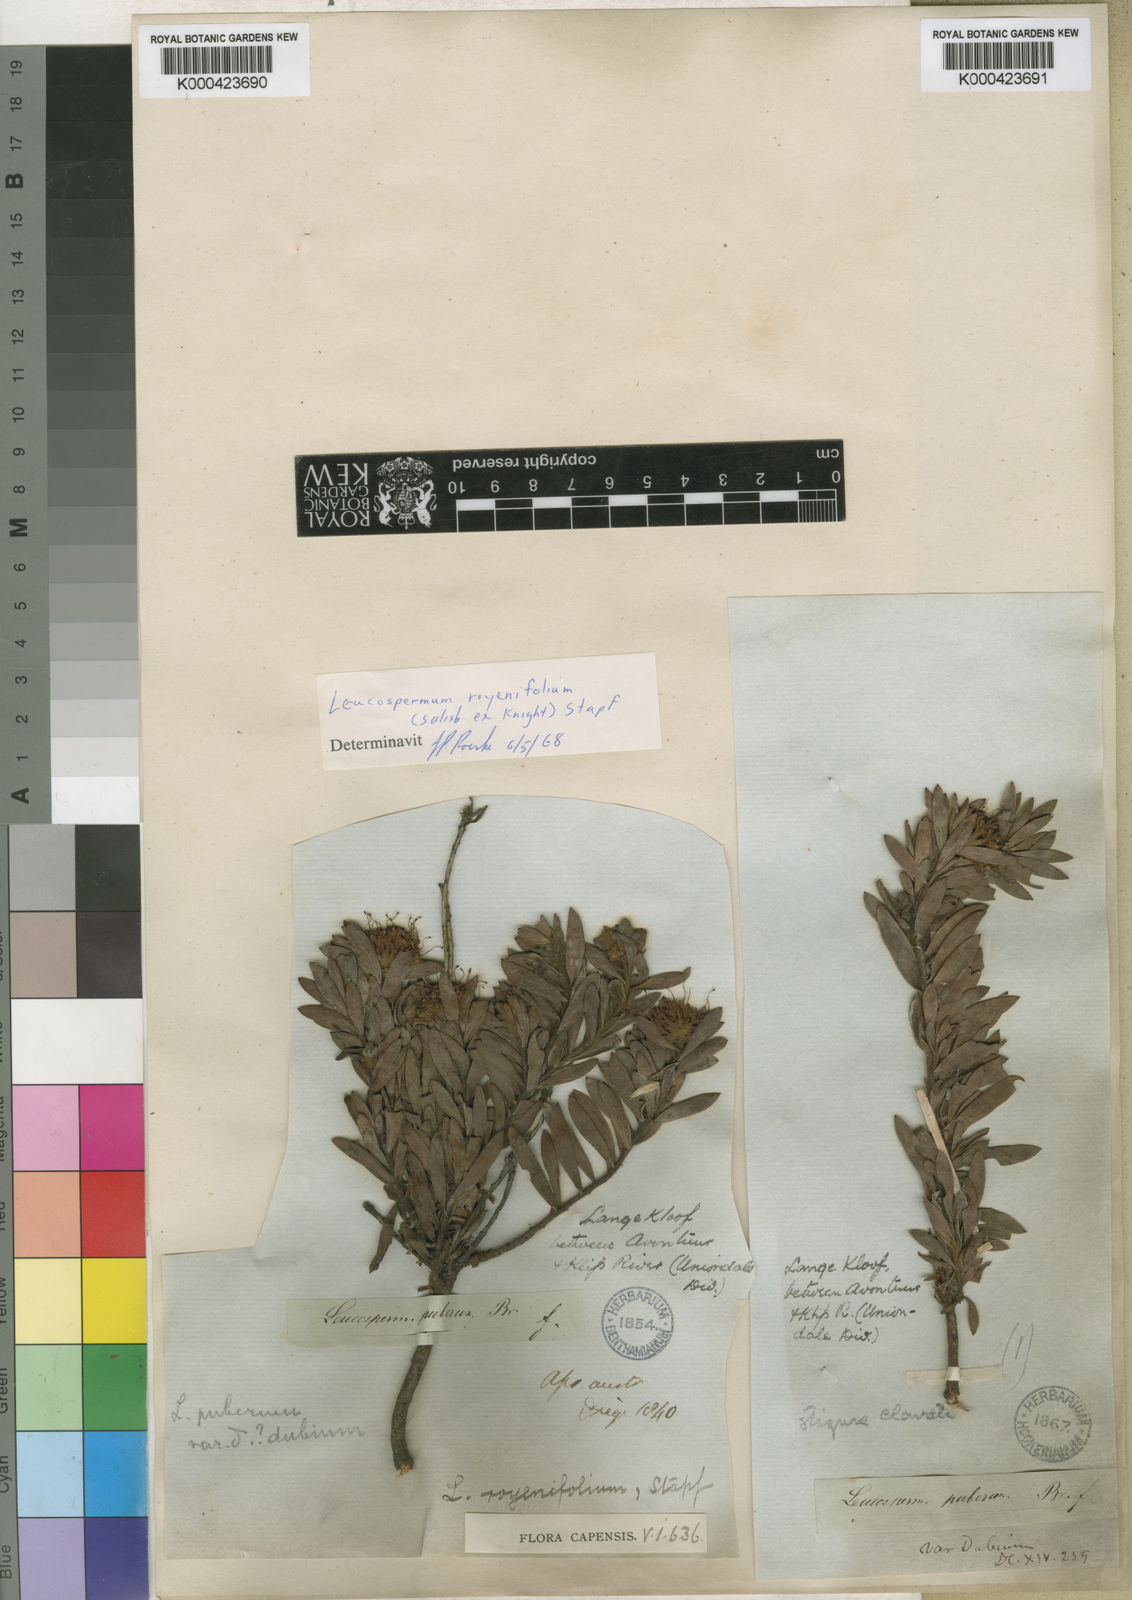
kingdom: Plantae
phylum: Tracheophyta
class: Magnoliopsida
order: Proteales
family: Proteaceae
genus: Leucospermum
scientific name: Leucospermum royenifolium
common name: Eastern pincushion
